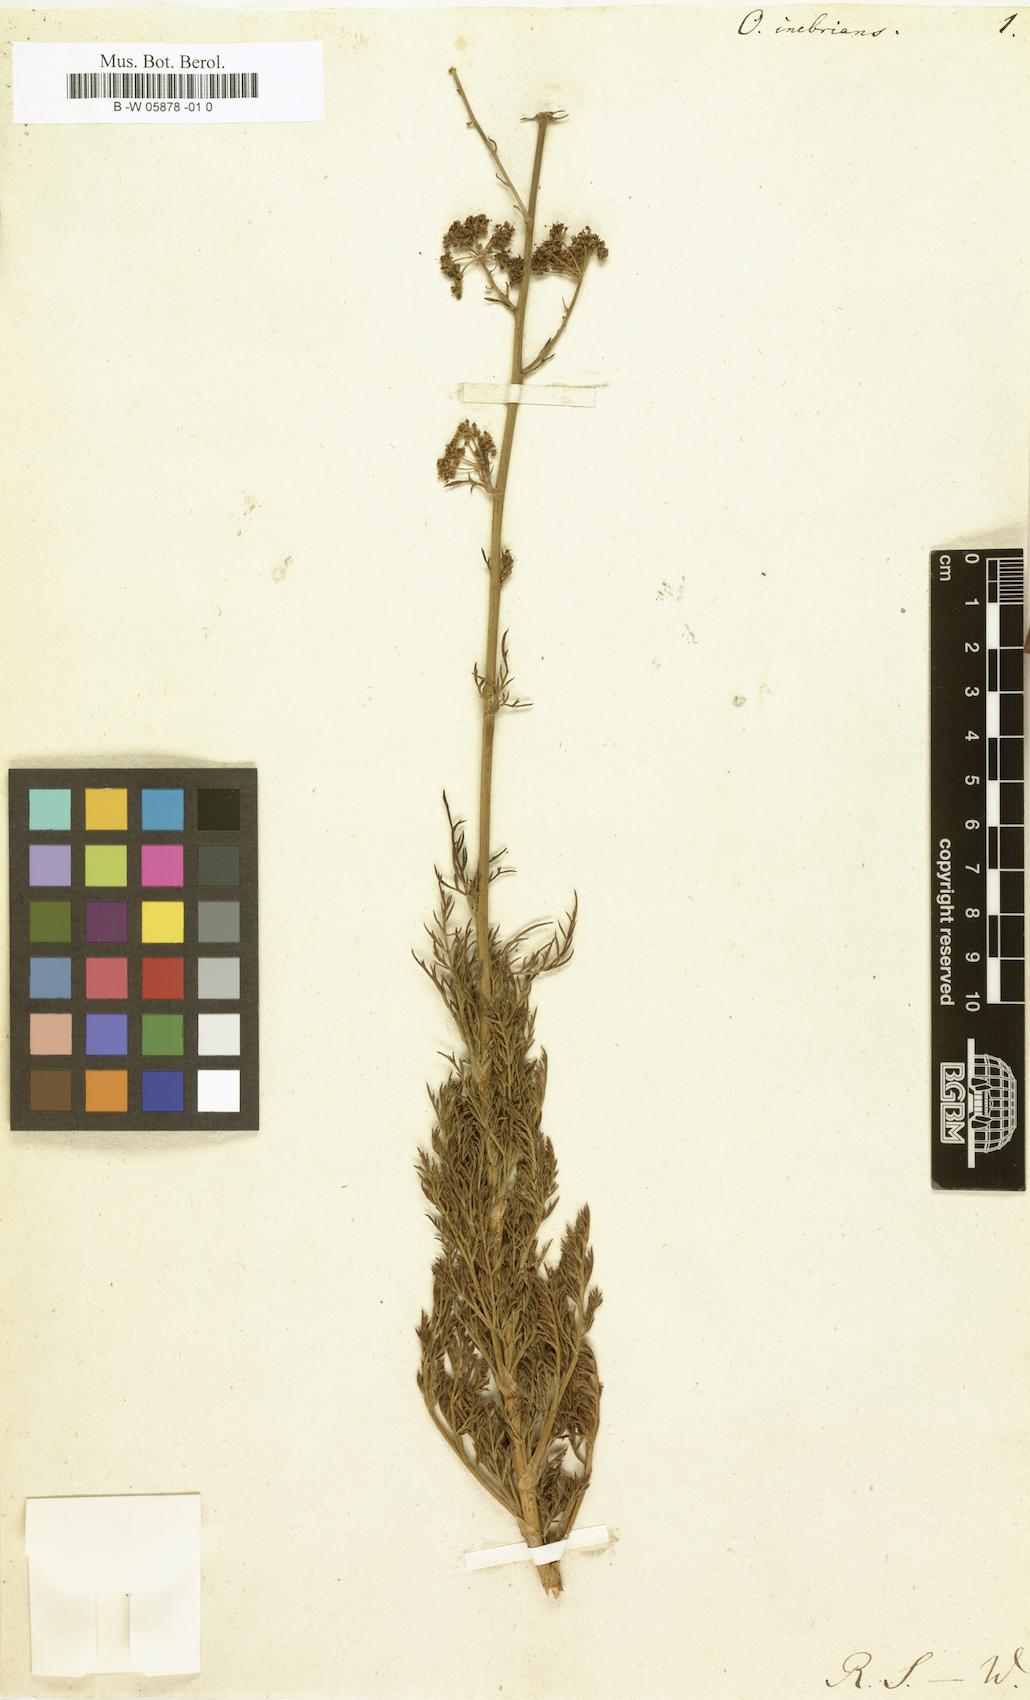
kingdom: Plantae
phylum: Tracheophyta
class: Magnoliopsida
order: Apiales
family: Apiaceae
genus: Glia
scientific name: Glia prolifera
